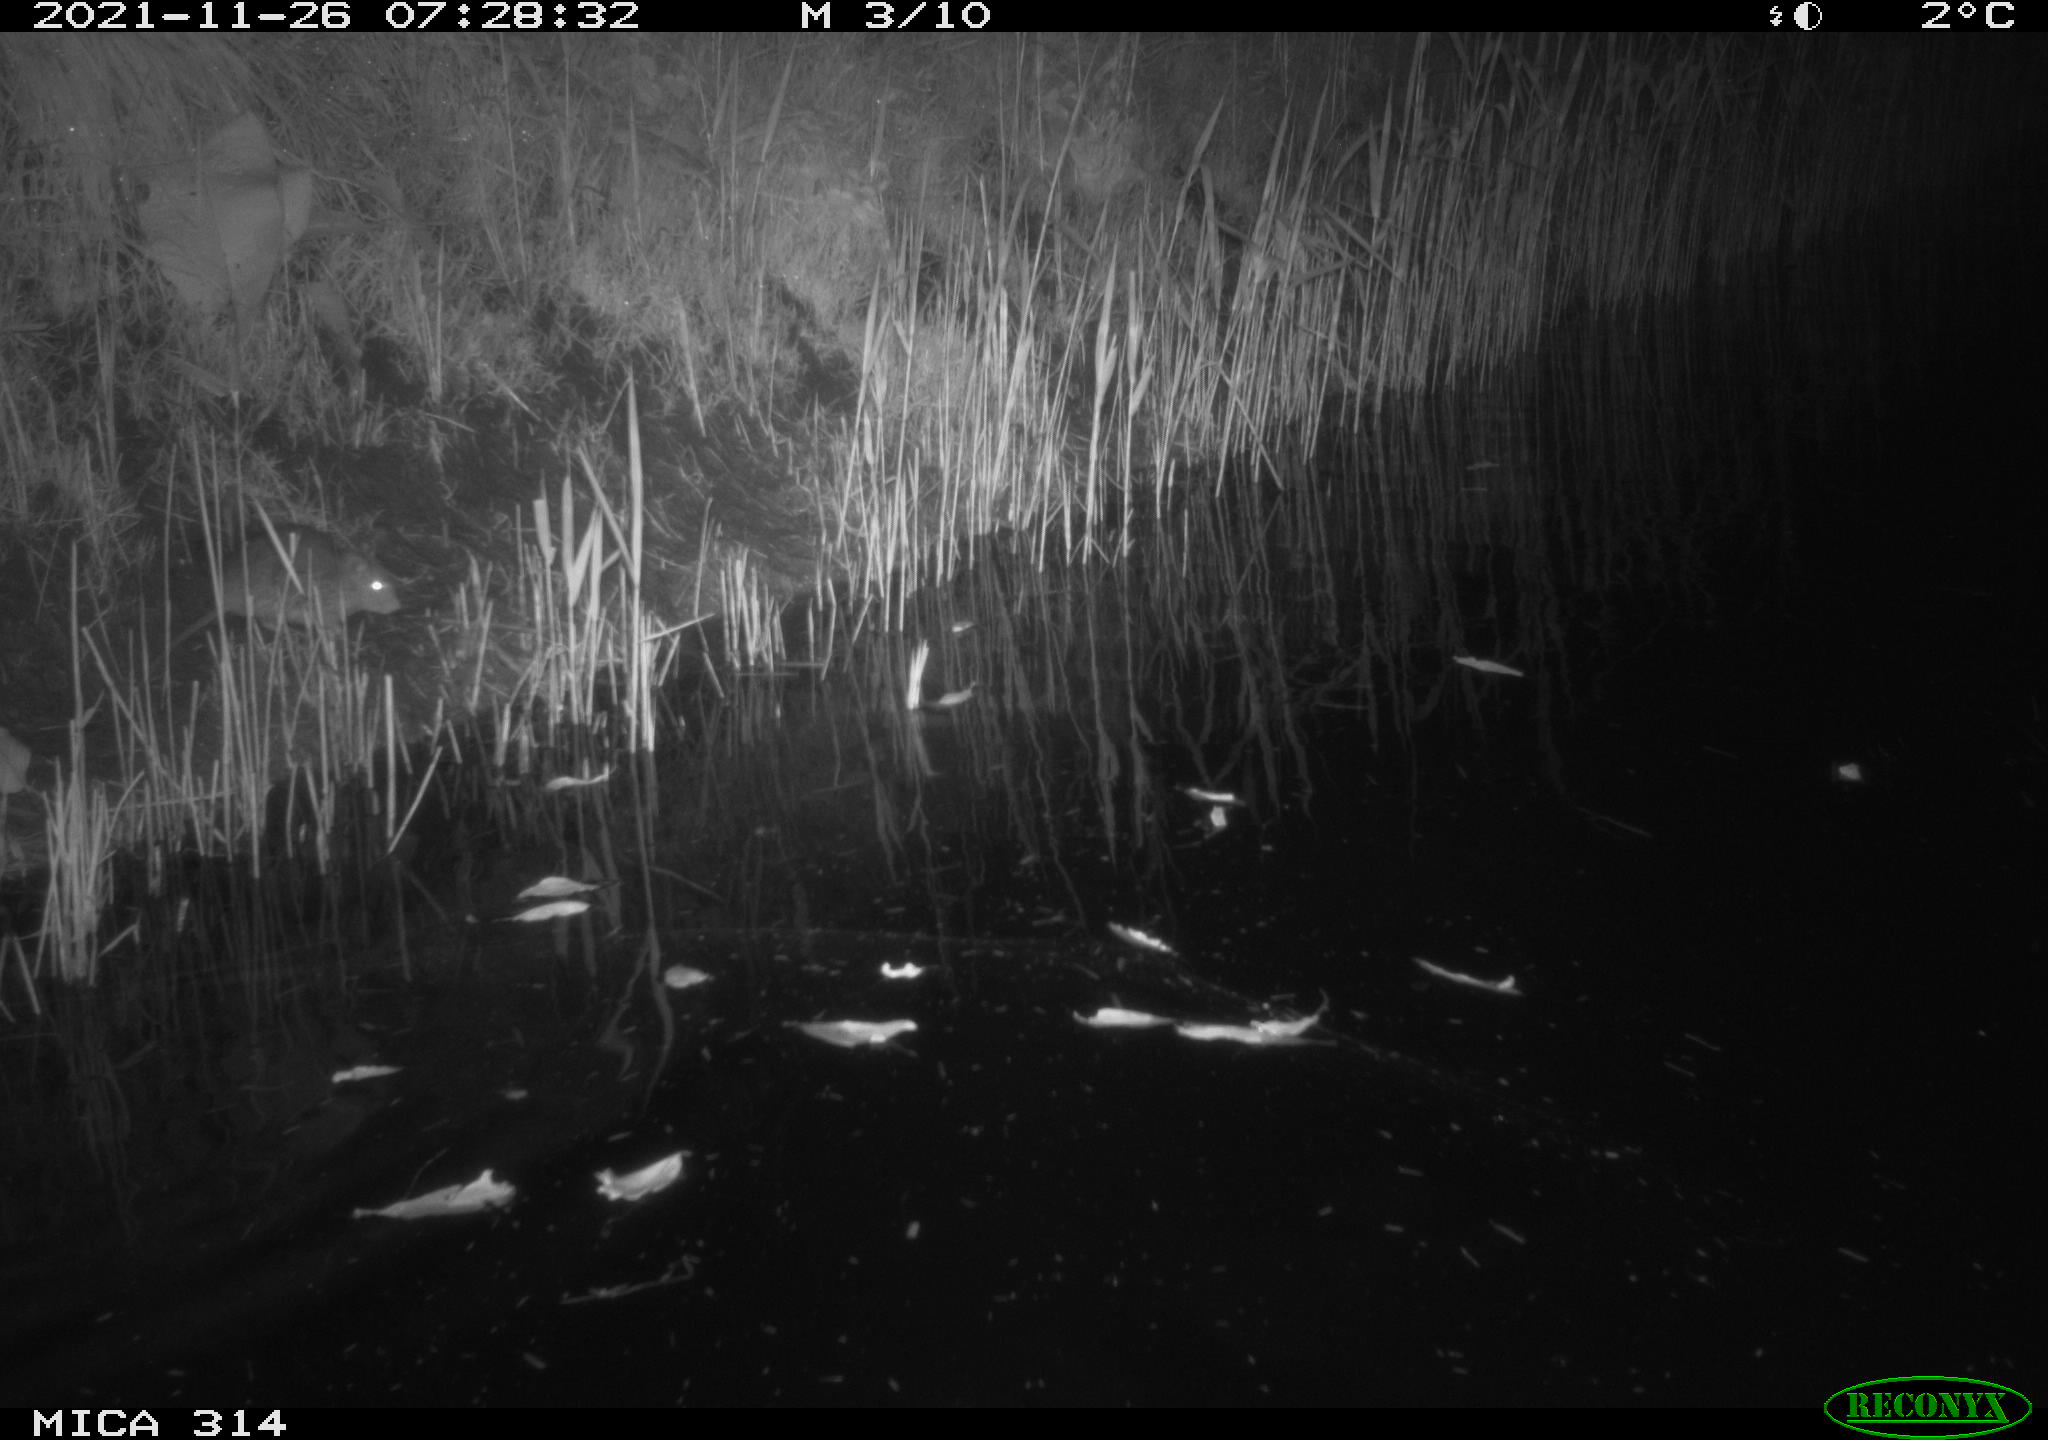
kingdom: Animalia
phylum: Chordata
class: Mammalia
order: Rodentia
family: Muridae
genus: Rattus
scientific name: Rattus norvegicus
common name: Brown rat
